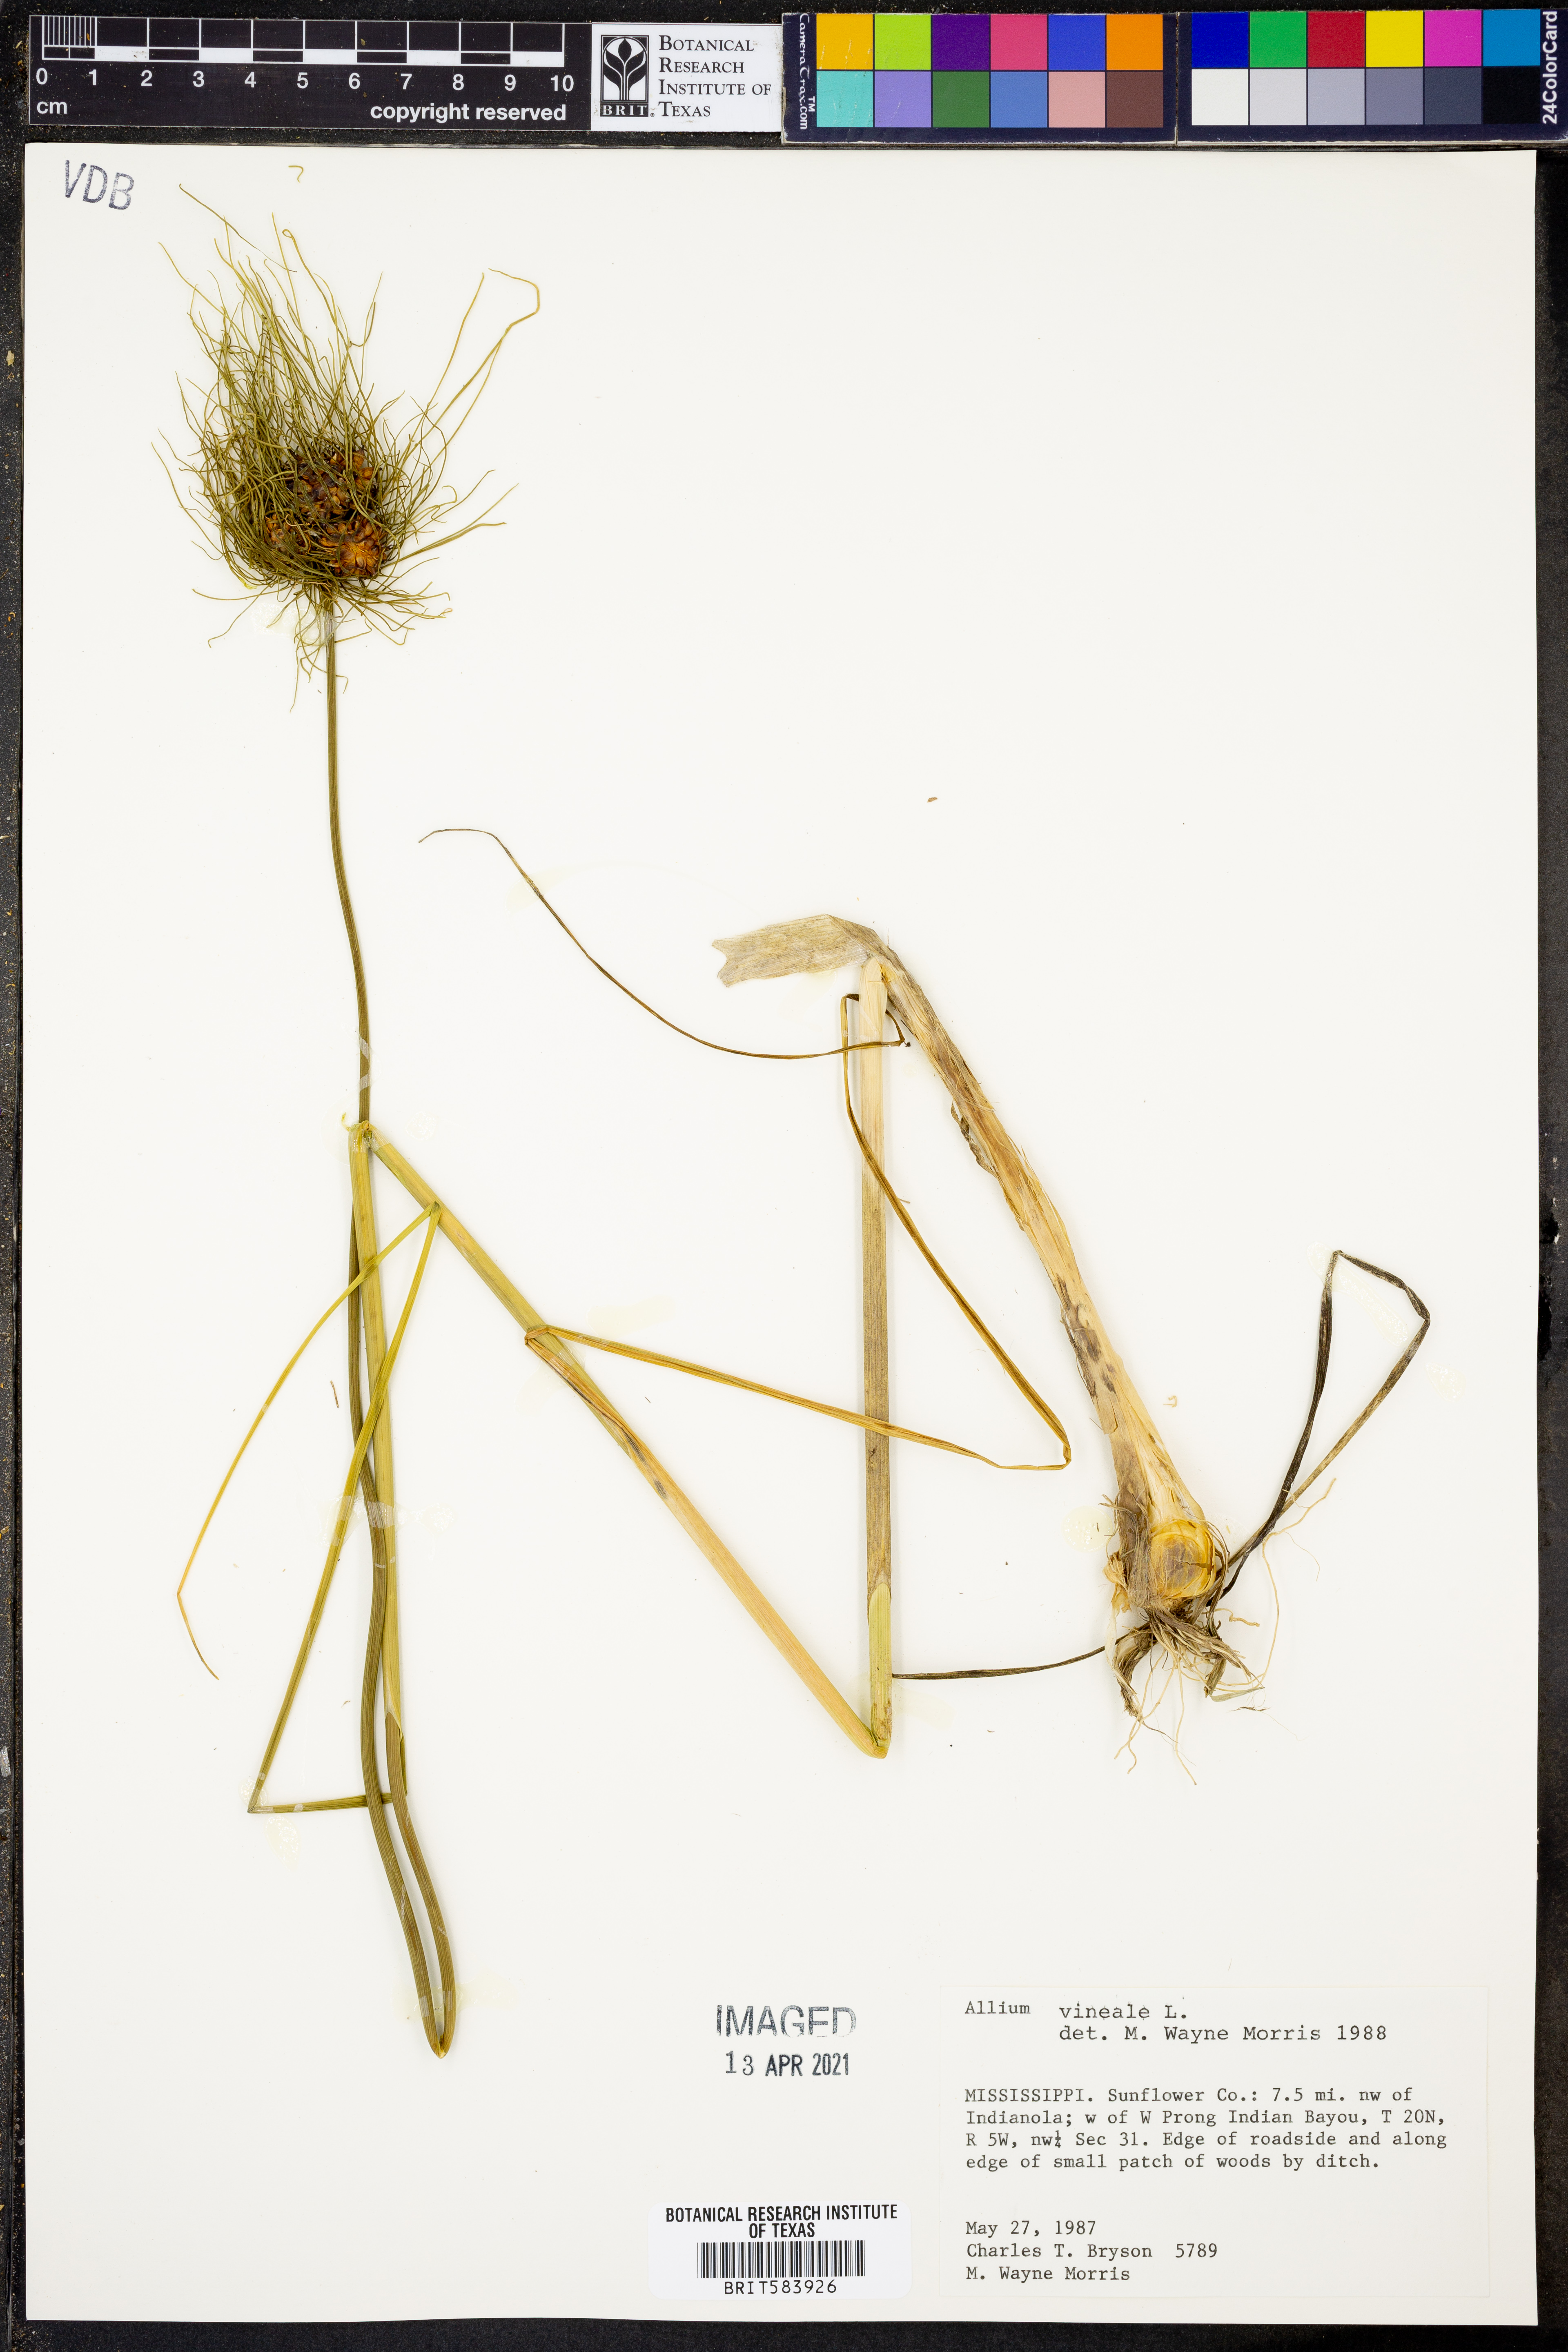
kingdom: Plantae
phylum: Tracheophyta
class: Liliopsida
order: Asparagales
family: Amaryllidaceae
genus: Allium
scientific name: Allium vineale
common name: Crow garlic
